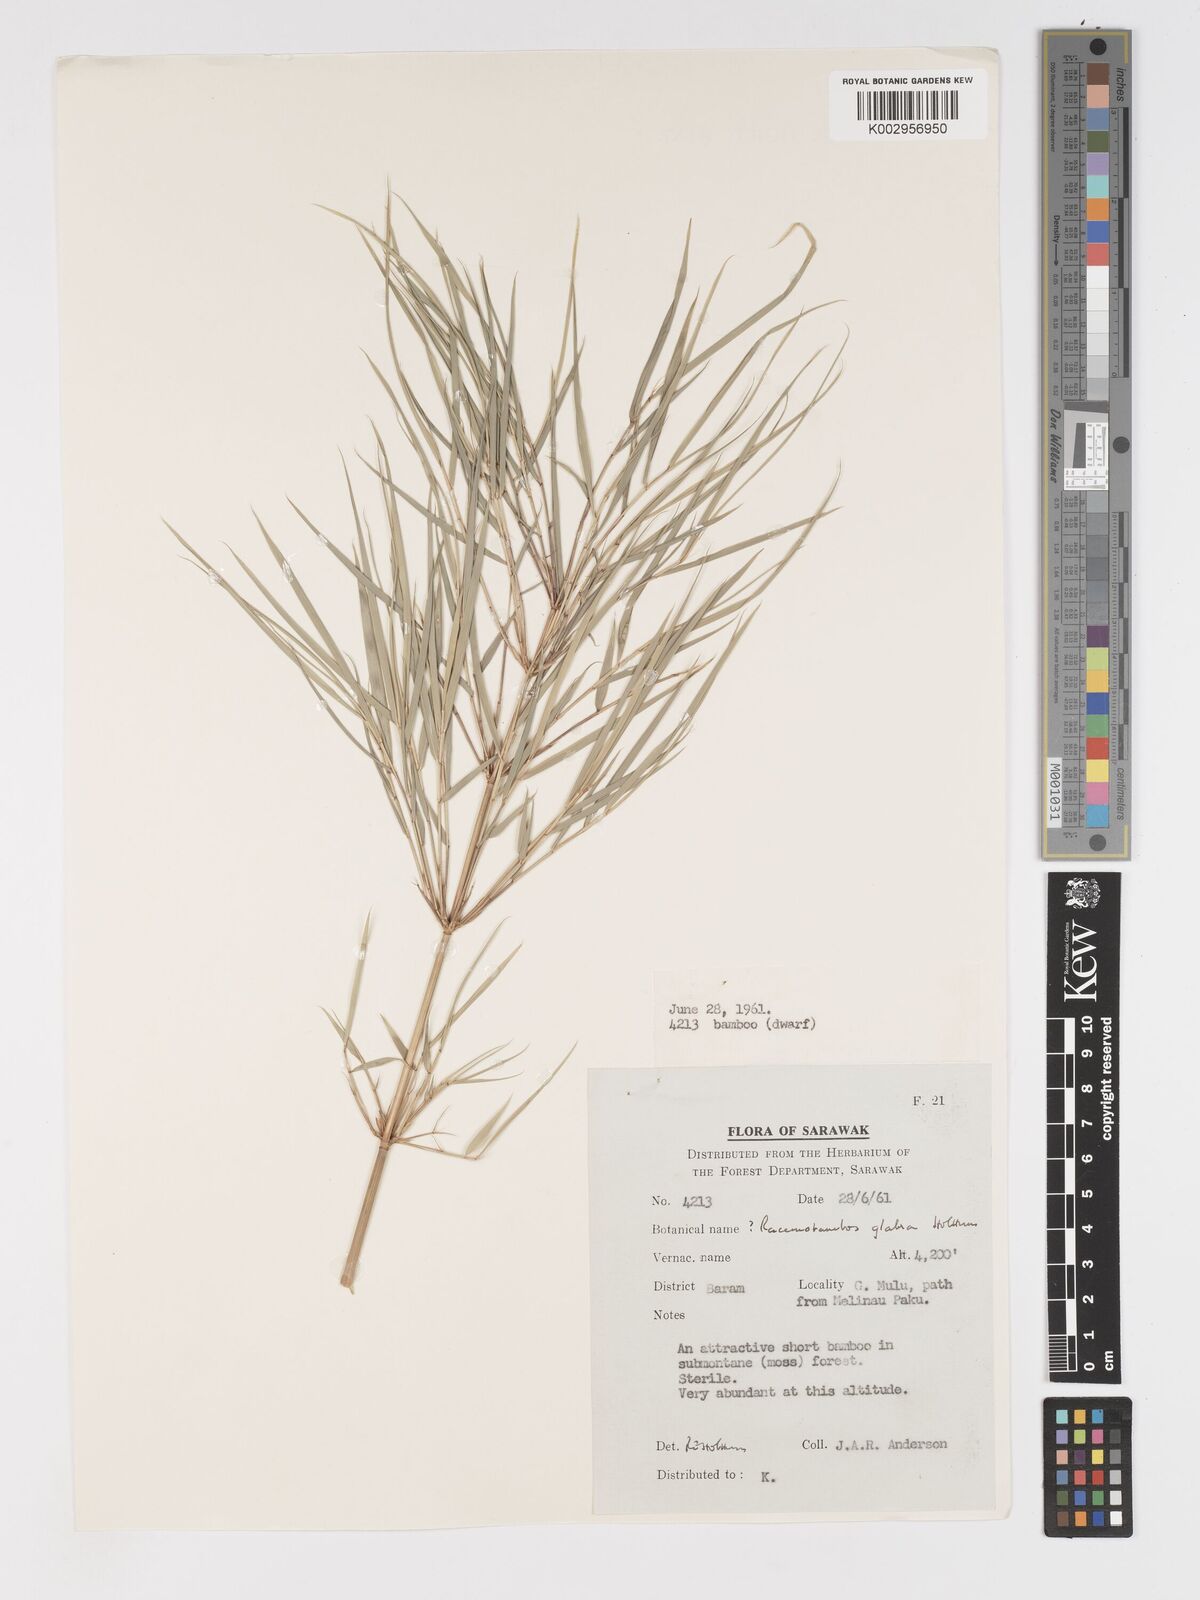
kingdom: Plantae
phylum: Tracheophyta
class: Liliopsida
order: Poales
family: Poaceae
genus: Racemobambos
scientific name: Racemobambos glabra
